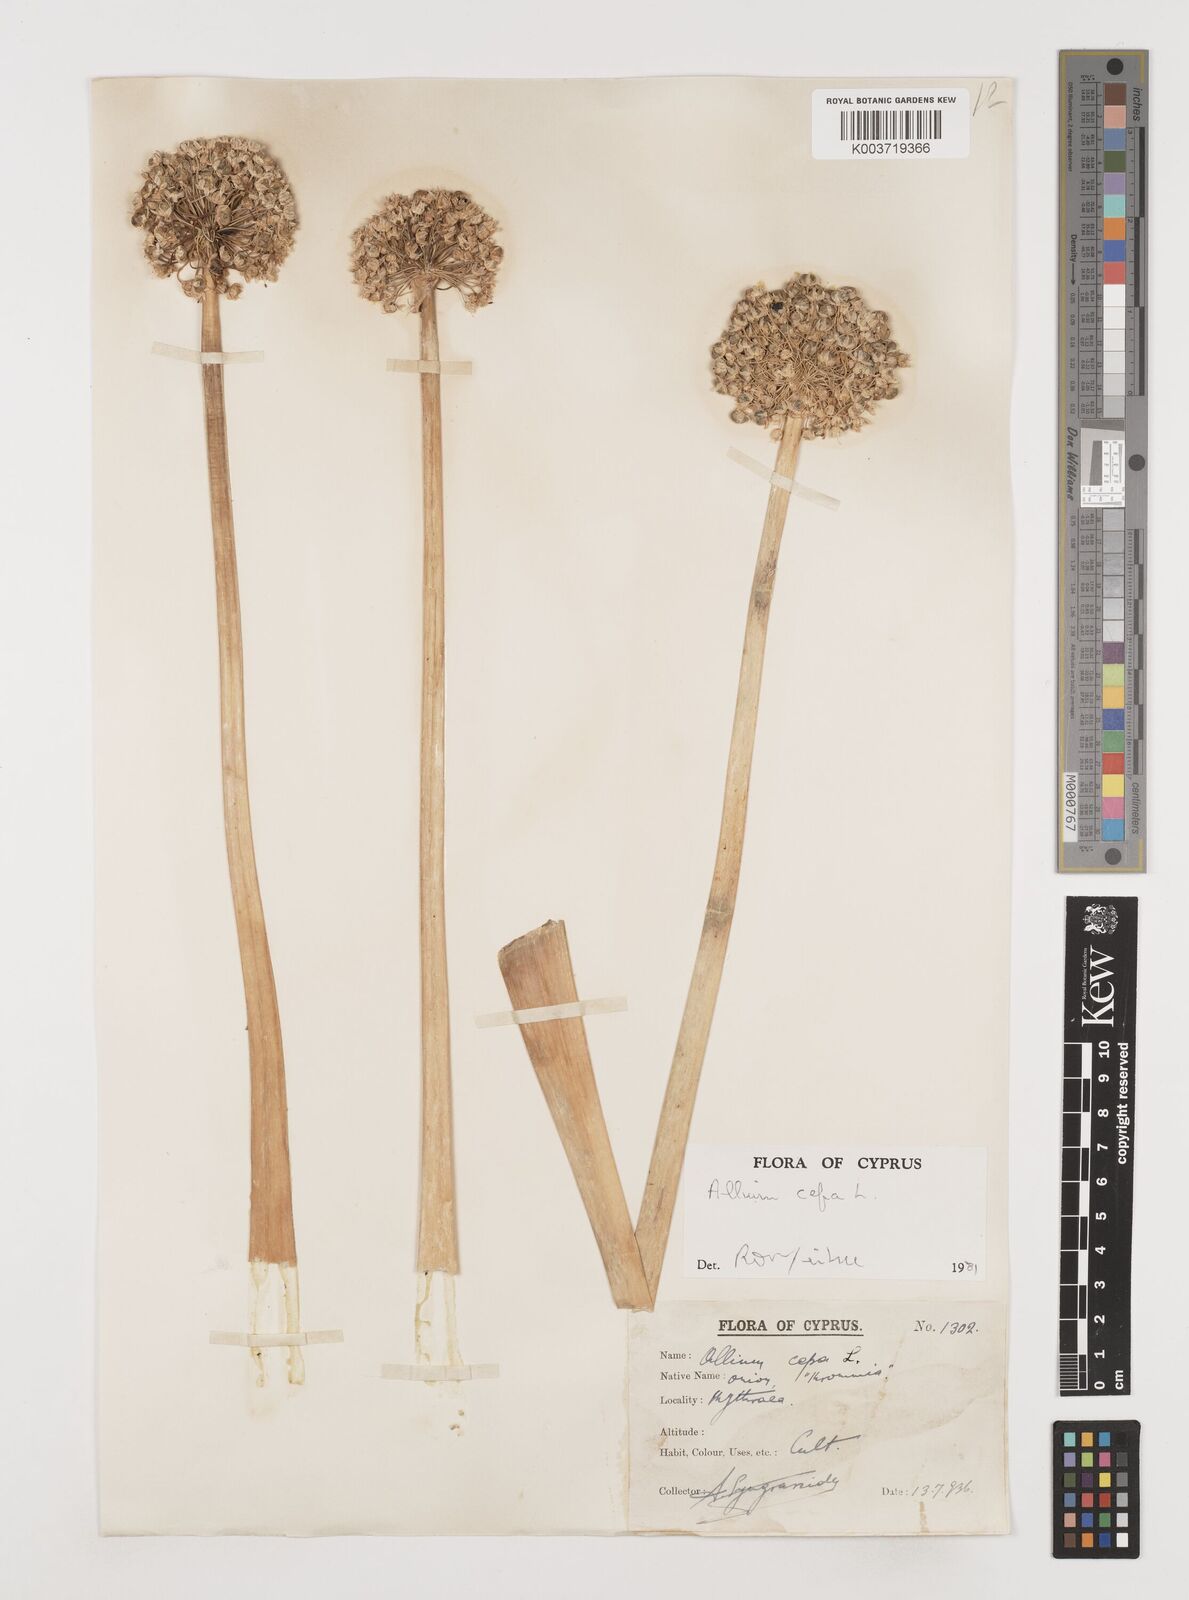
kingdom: Plantae
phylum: Tracheophyta
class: Liliopsida
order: Asparagales
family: Amaryllidaceae
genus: Allium
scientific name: Allium cepa
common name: Onion
